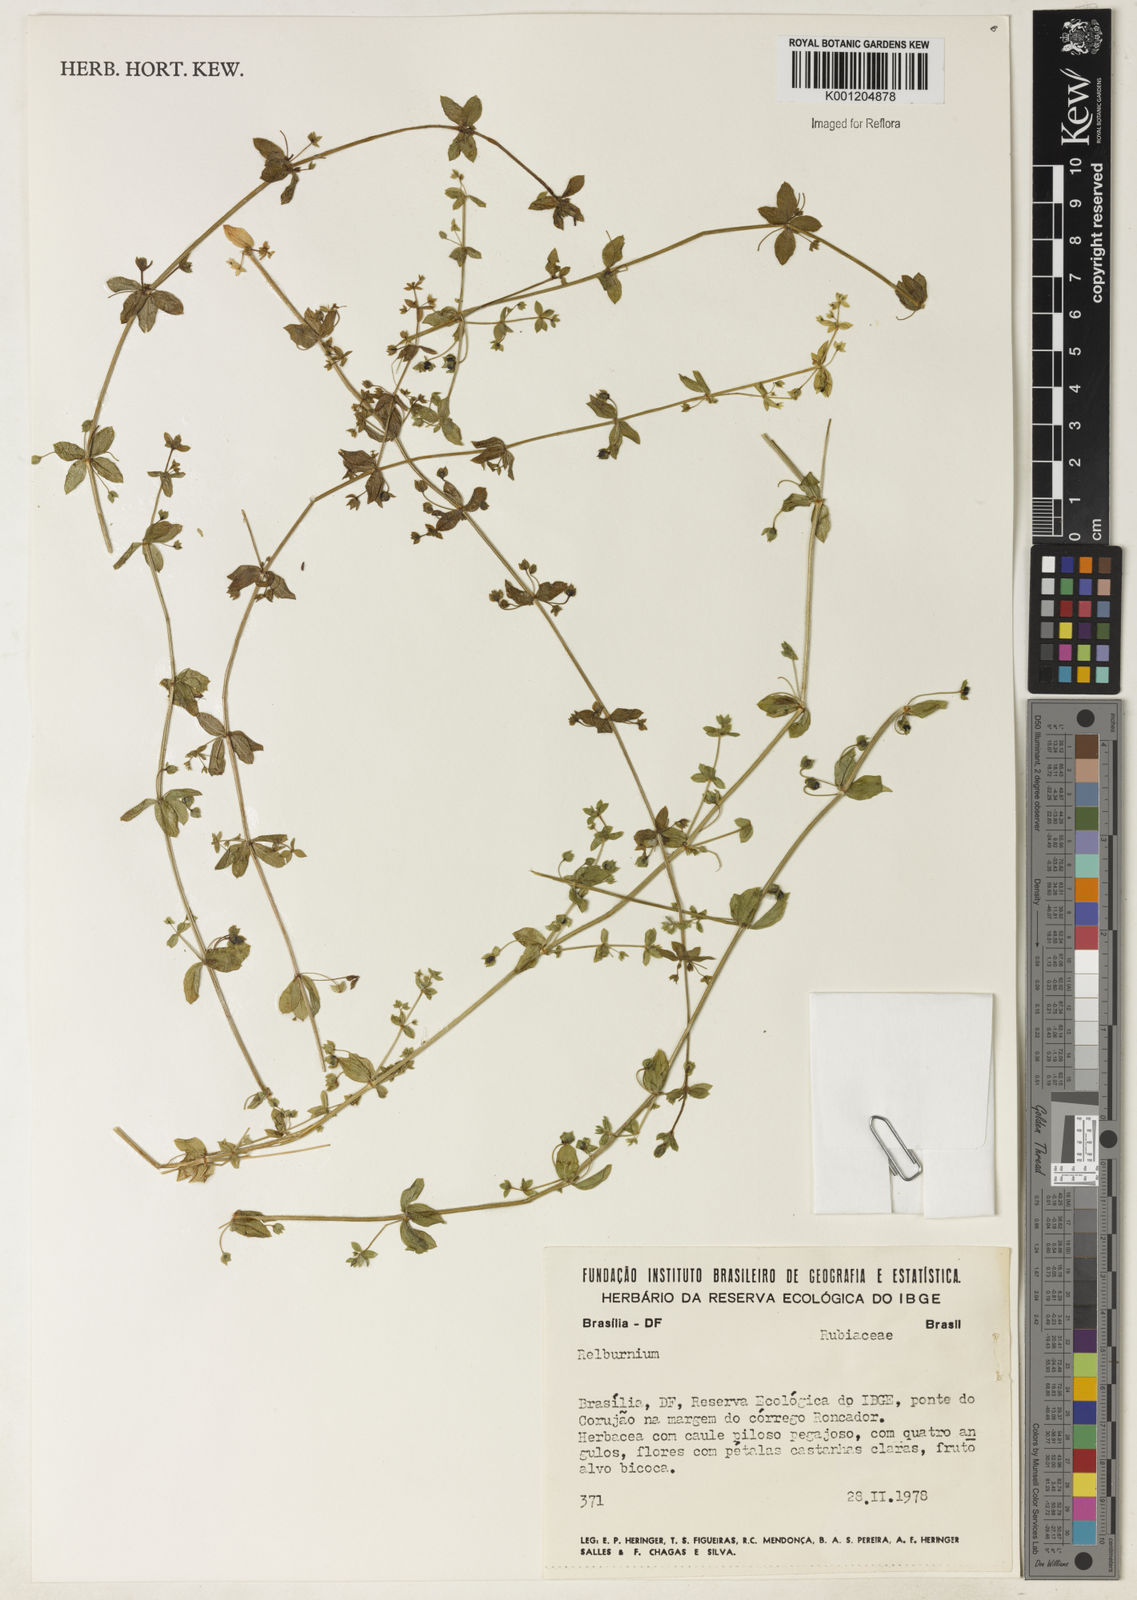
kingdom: Plantae
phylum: Tracheophyta
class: Magnoliopsida
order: Gentianales
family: Rubiaceae
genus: Galium
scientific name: Galium
